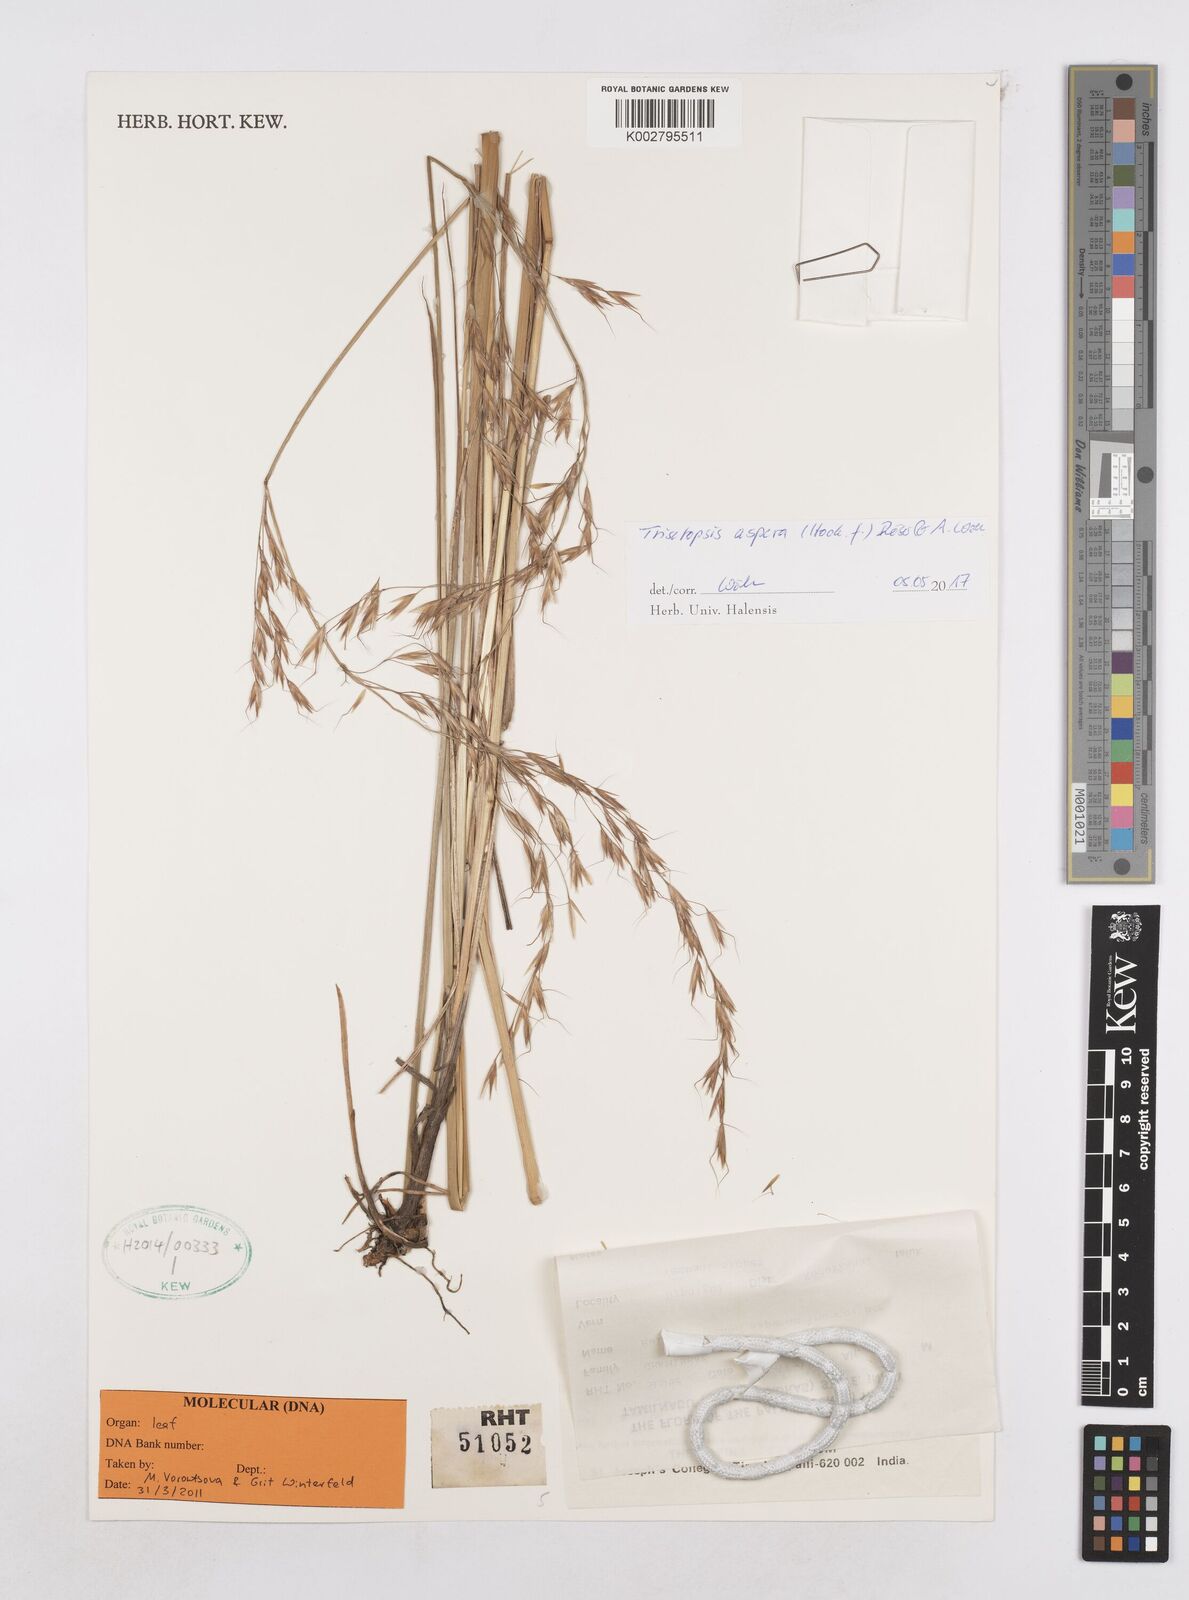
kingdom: Plantae
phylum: Tracheophyta
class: Liliopsida
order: Poales
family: Poaceae
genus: Trisetopsis
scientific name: Trisetopsis junghuhnii
